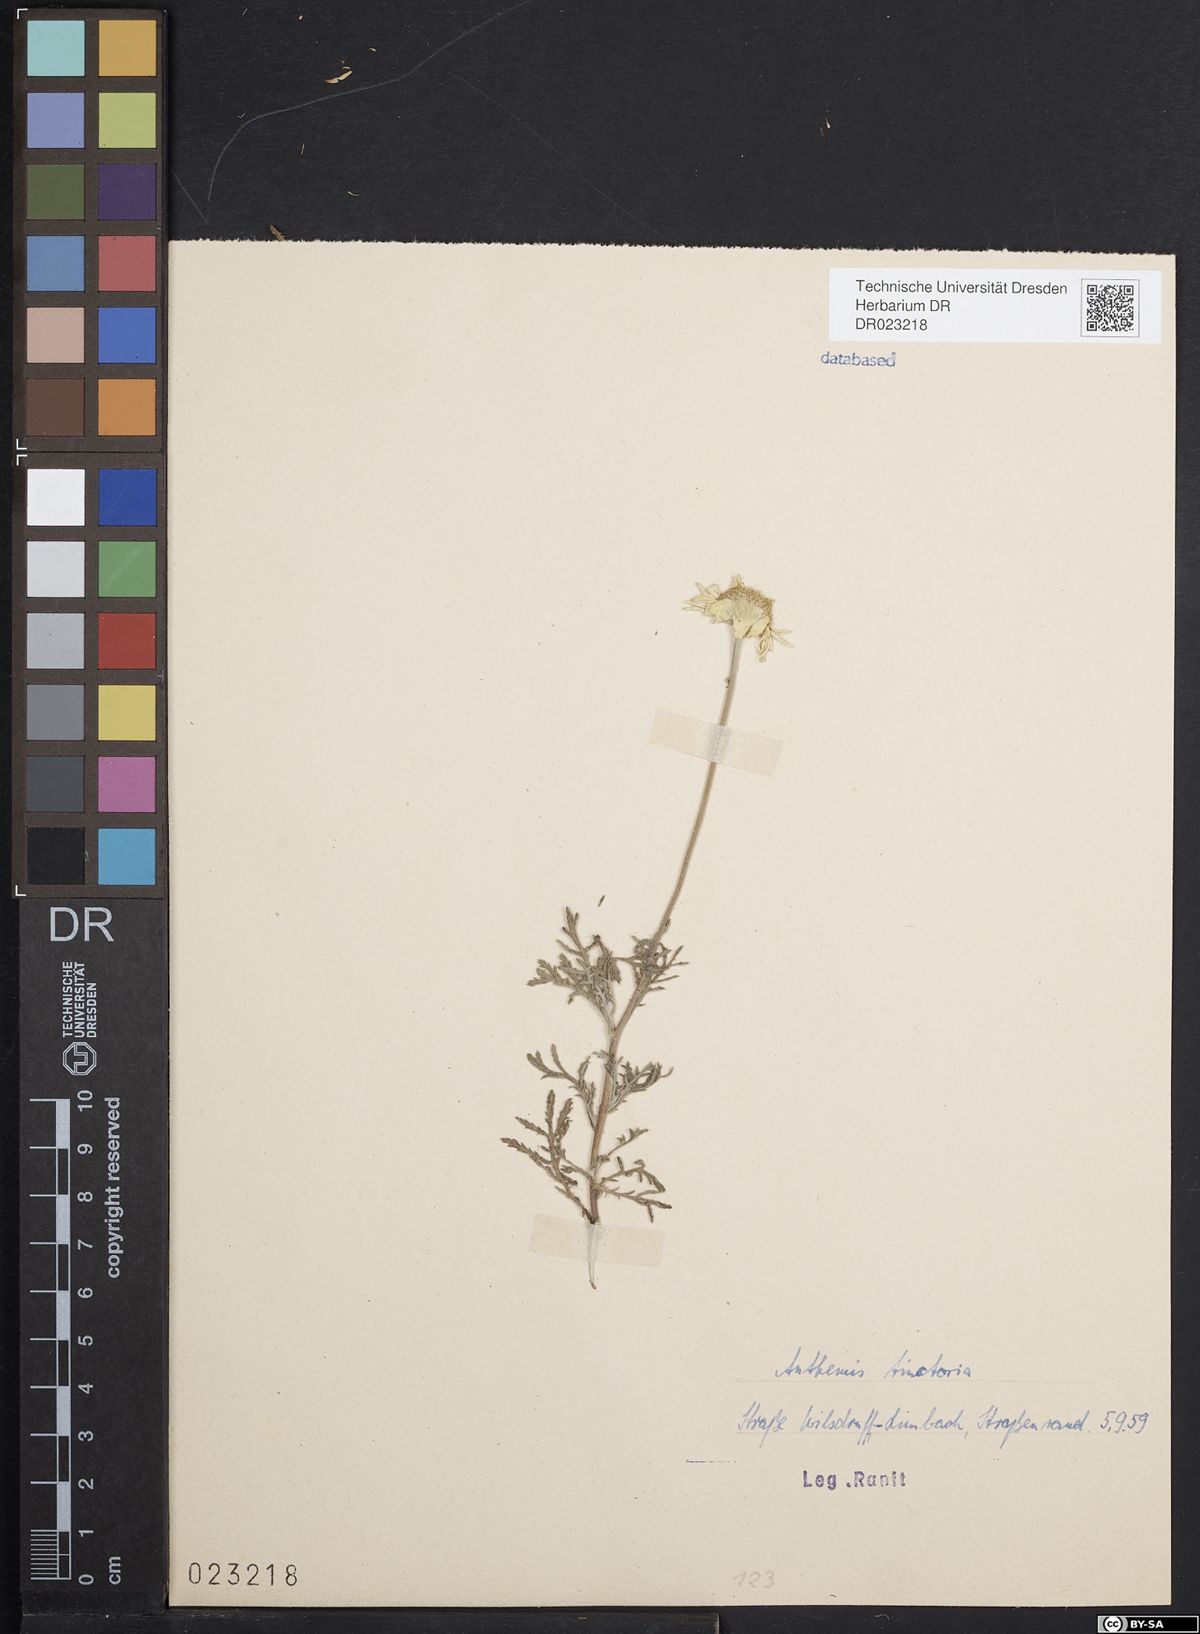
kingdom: Plantae
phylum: Tracheophyta
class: Magnoliopsida
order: Asterales
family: Asteraceae
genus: Cota
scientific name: Cota tinctoria
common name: Golden chamomile
